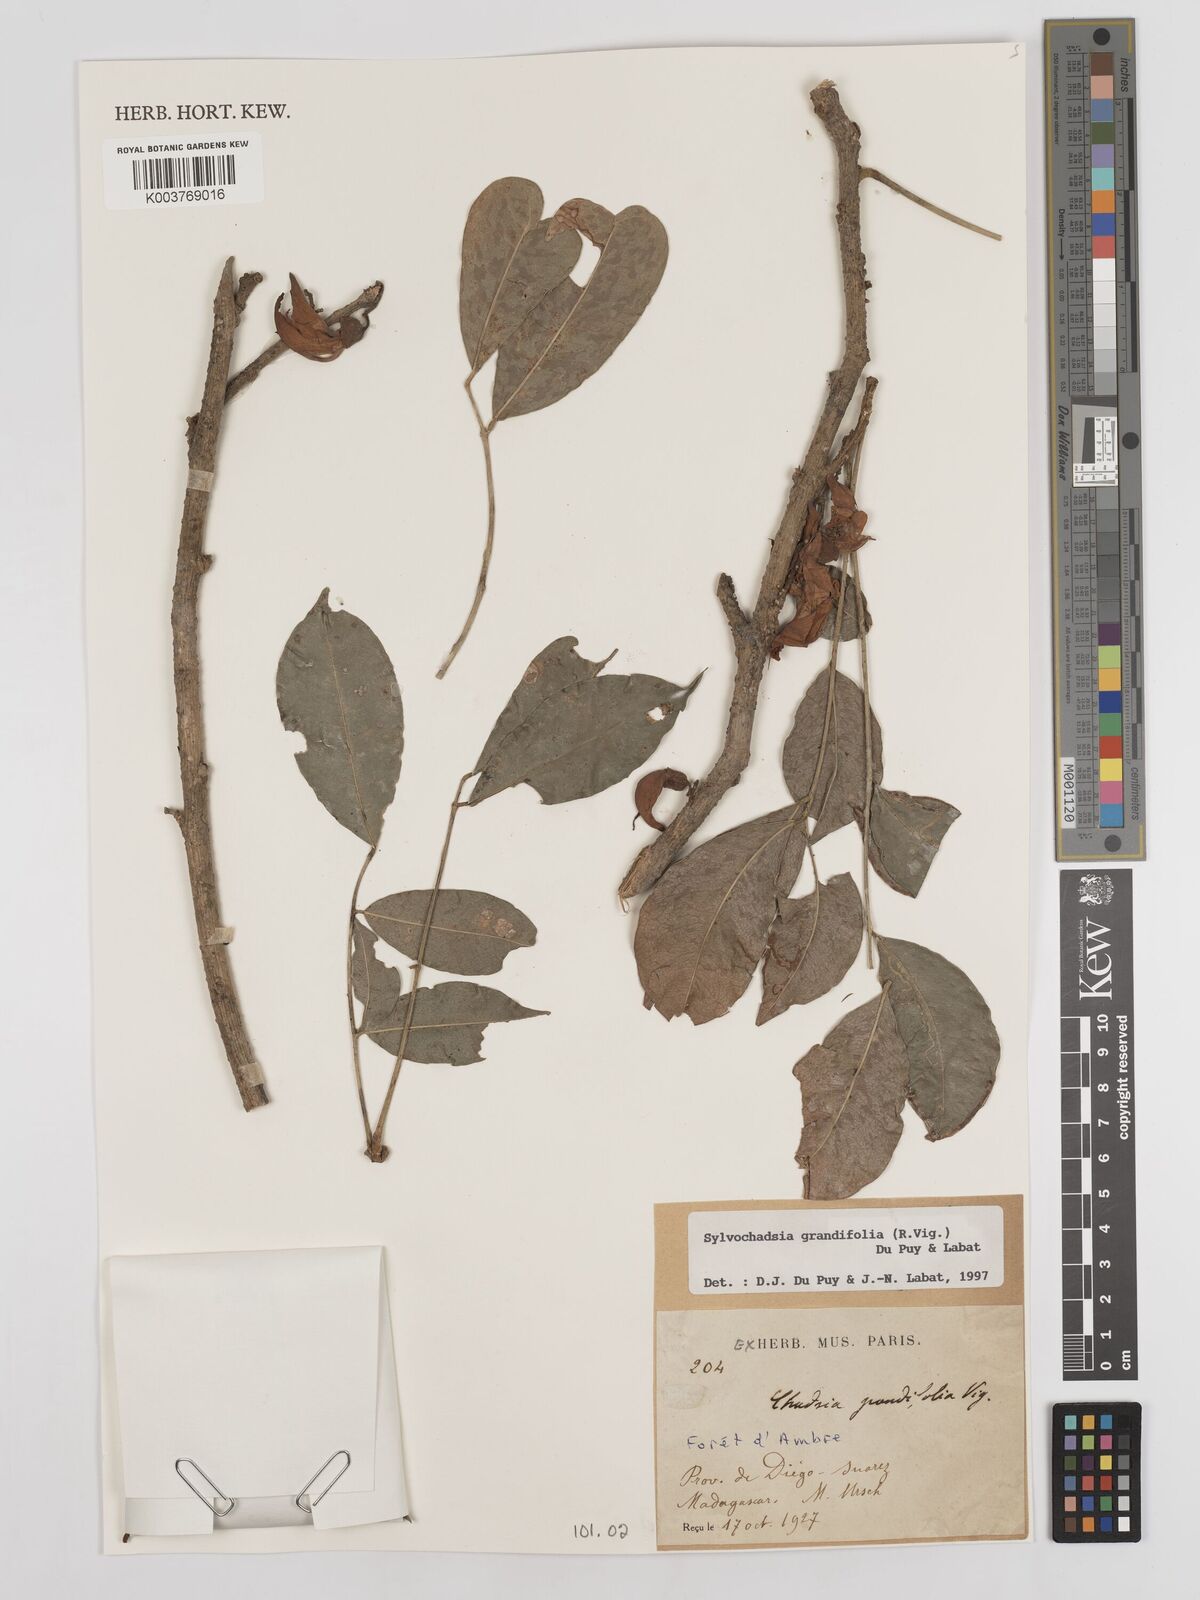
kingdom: Plantae
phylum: Tracheophyta
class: Magnoliopsida
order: Fabales
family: Fabaceae
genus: Sylvichadsia
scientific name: Sylvichadsia grandifolia
